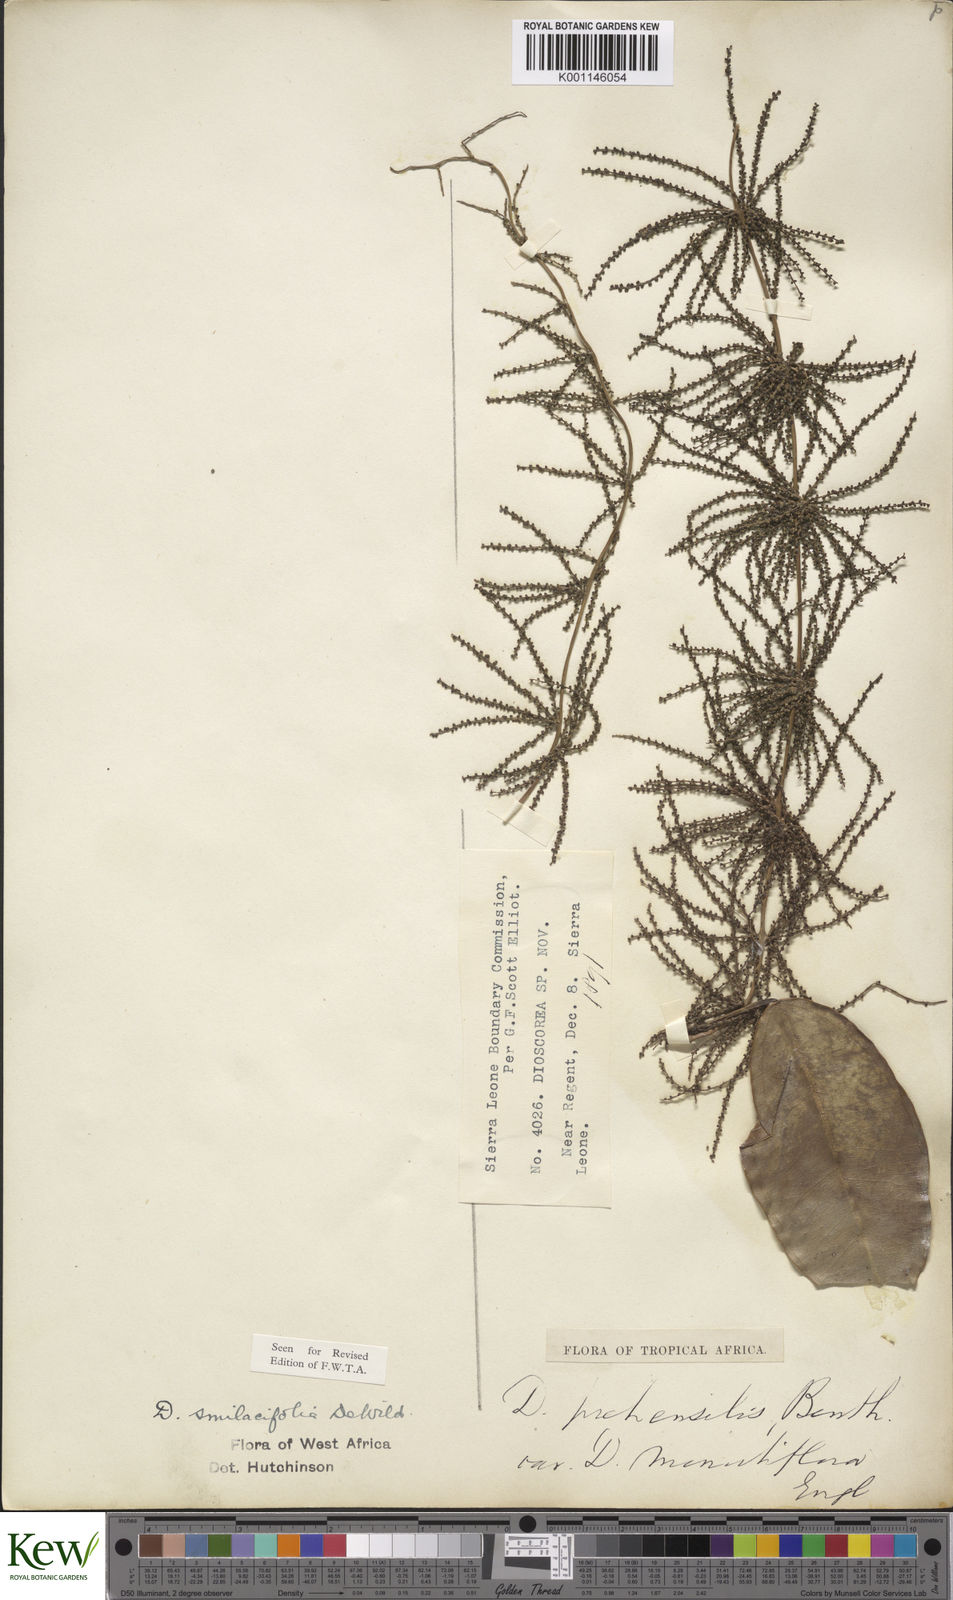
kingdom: Plantae
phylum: Tracheophyta
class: Liliopsida
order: Dioscoreales
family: Dioscoreaceae
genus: Dioscorea
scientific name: Dioscorea smilacifolia
